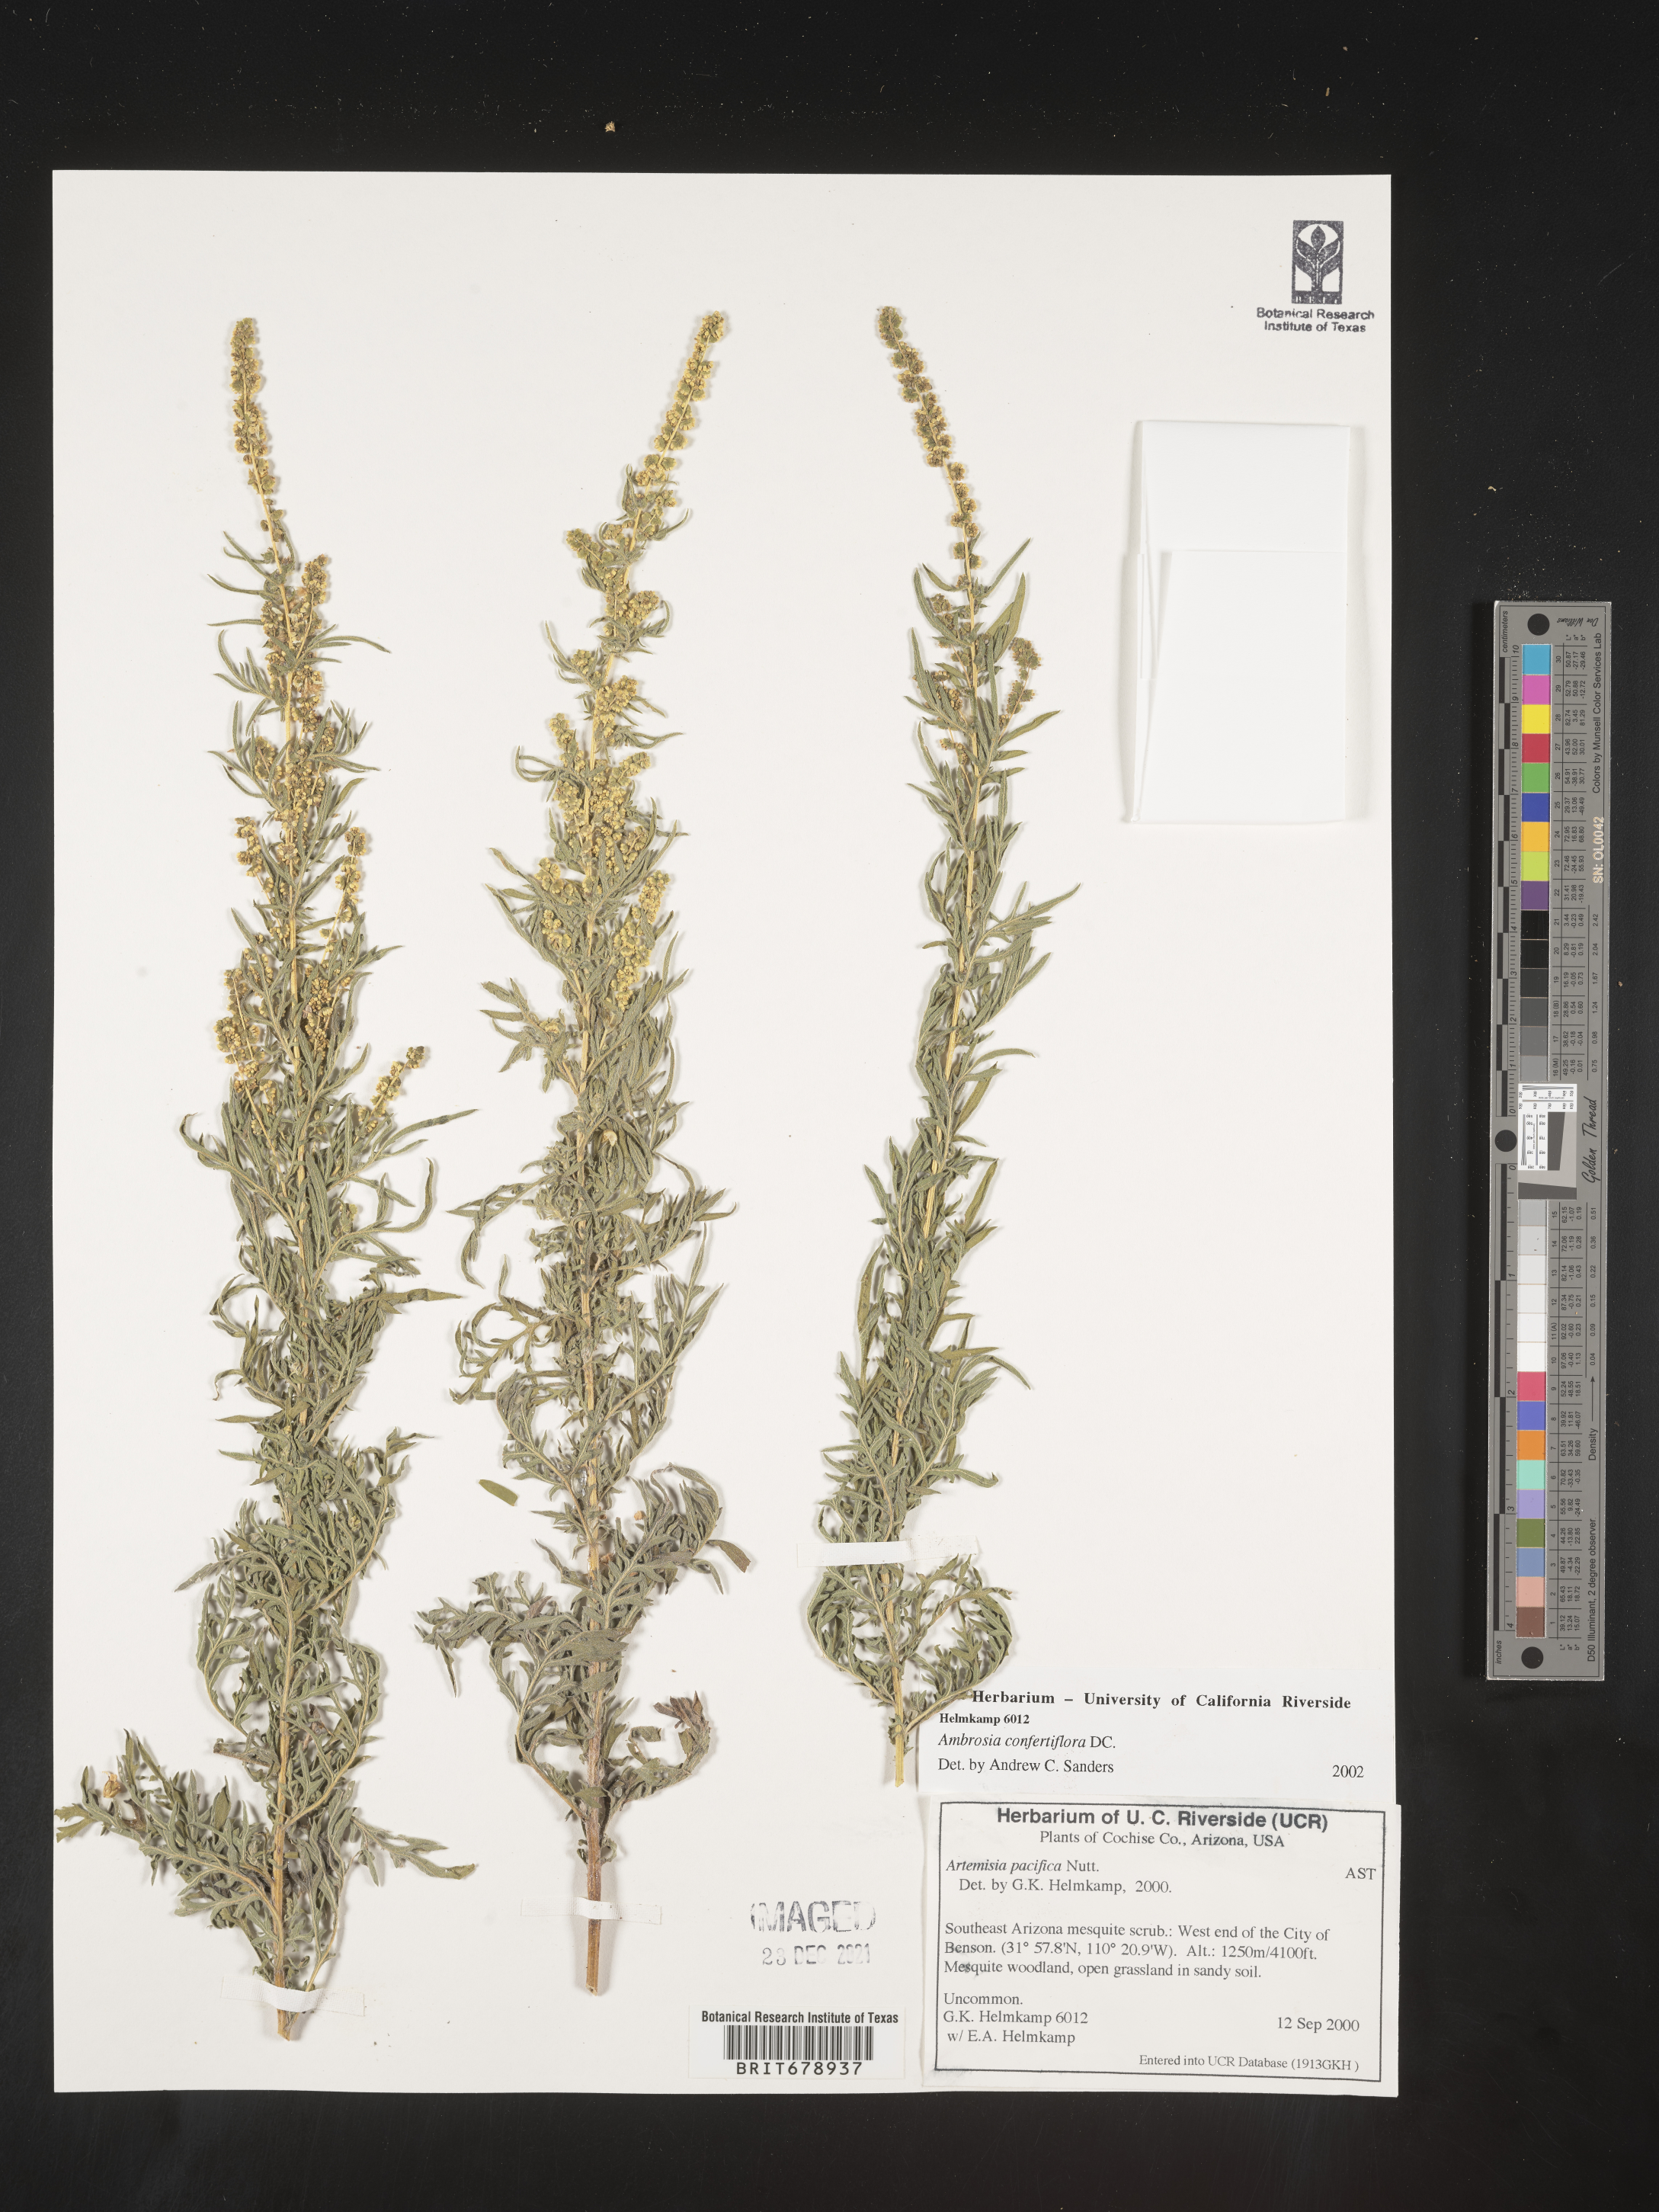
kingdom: Plantae
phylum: Tracheophyta
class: Magnoliopsida
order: Asterales
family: Asteraceae
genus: Ambrosia
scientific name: Ambrosia confertiflora
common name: Bur ragweed
